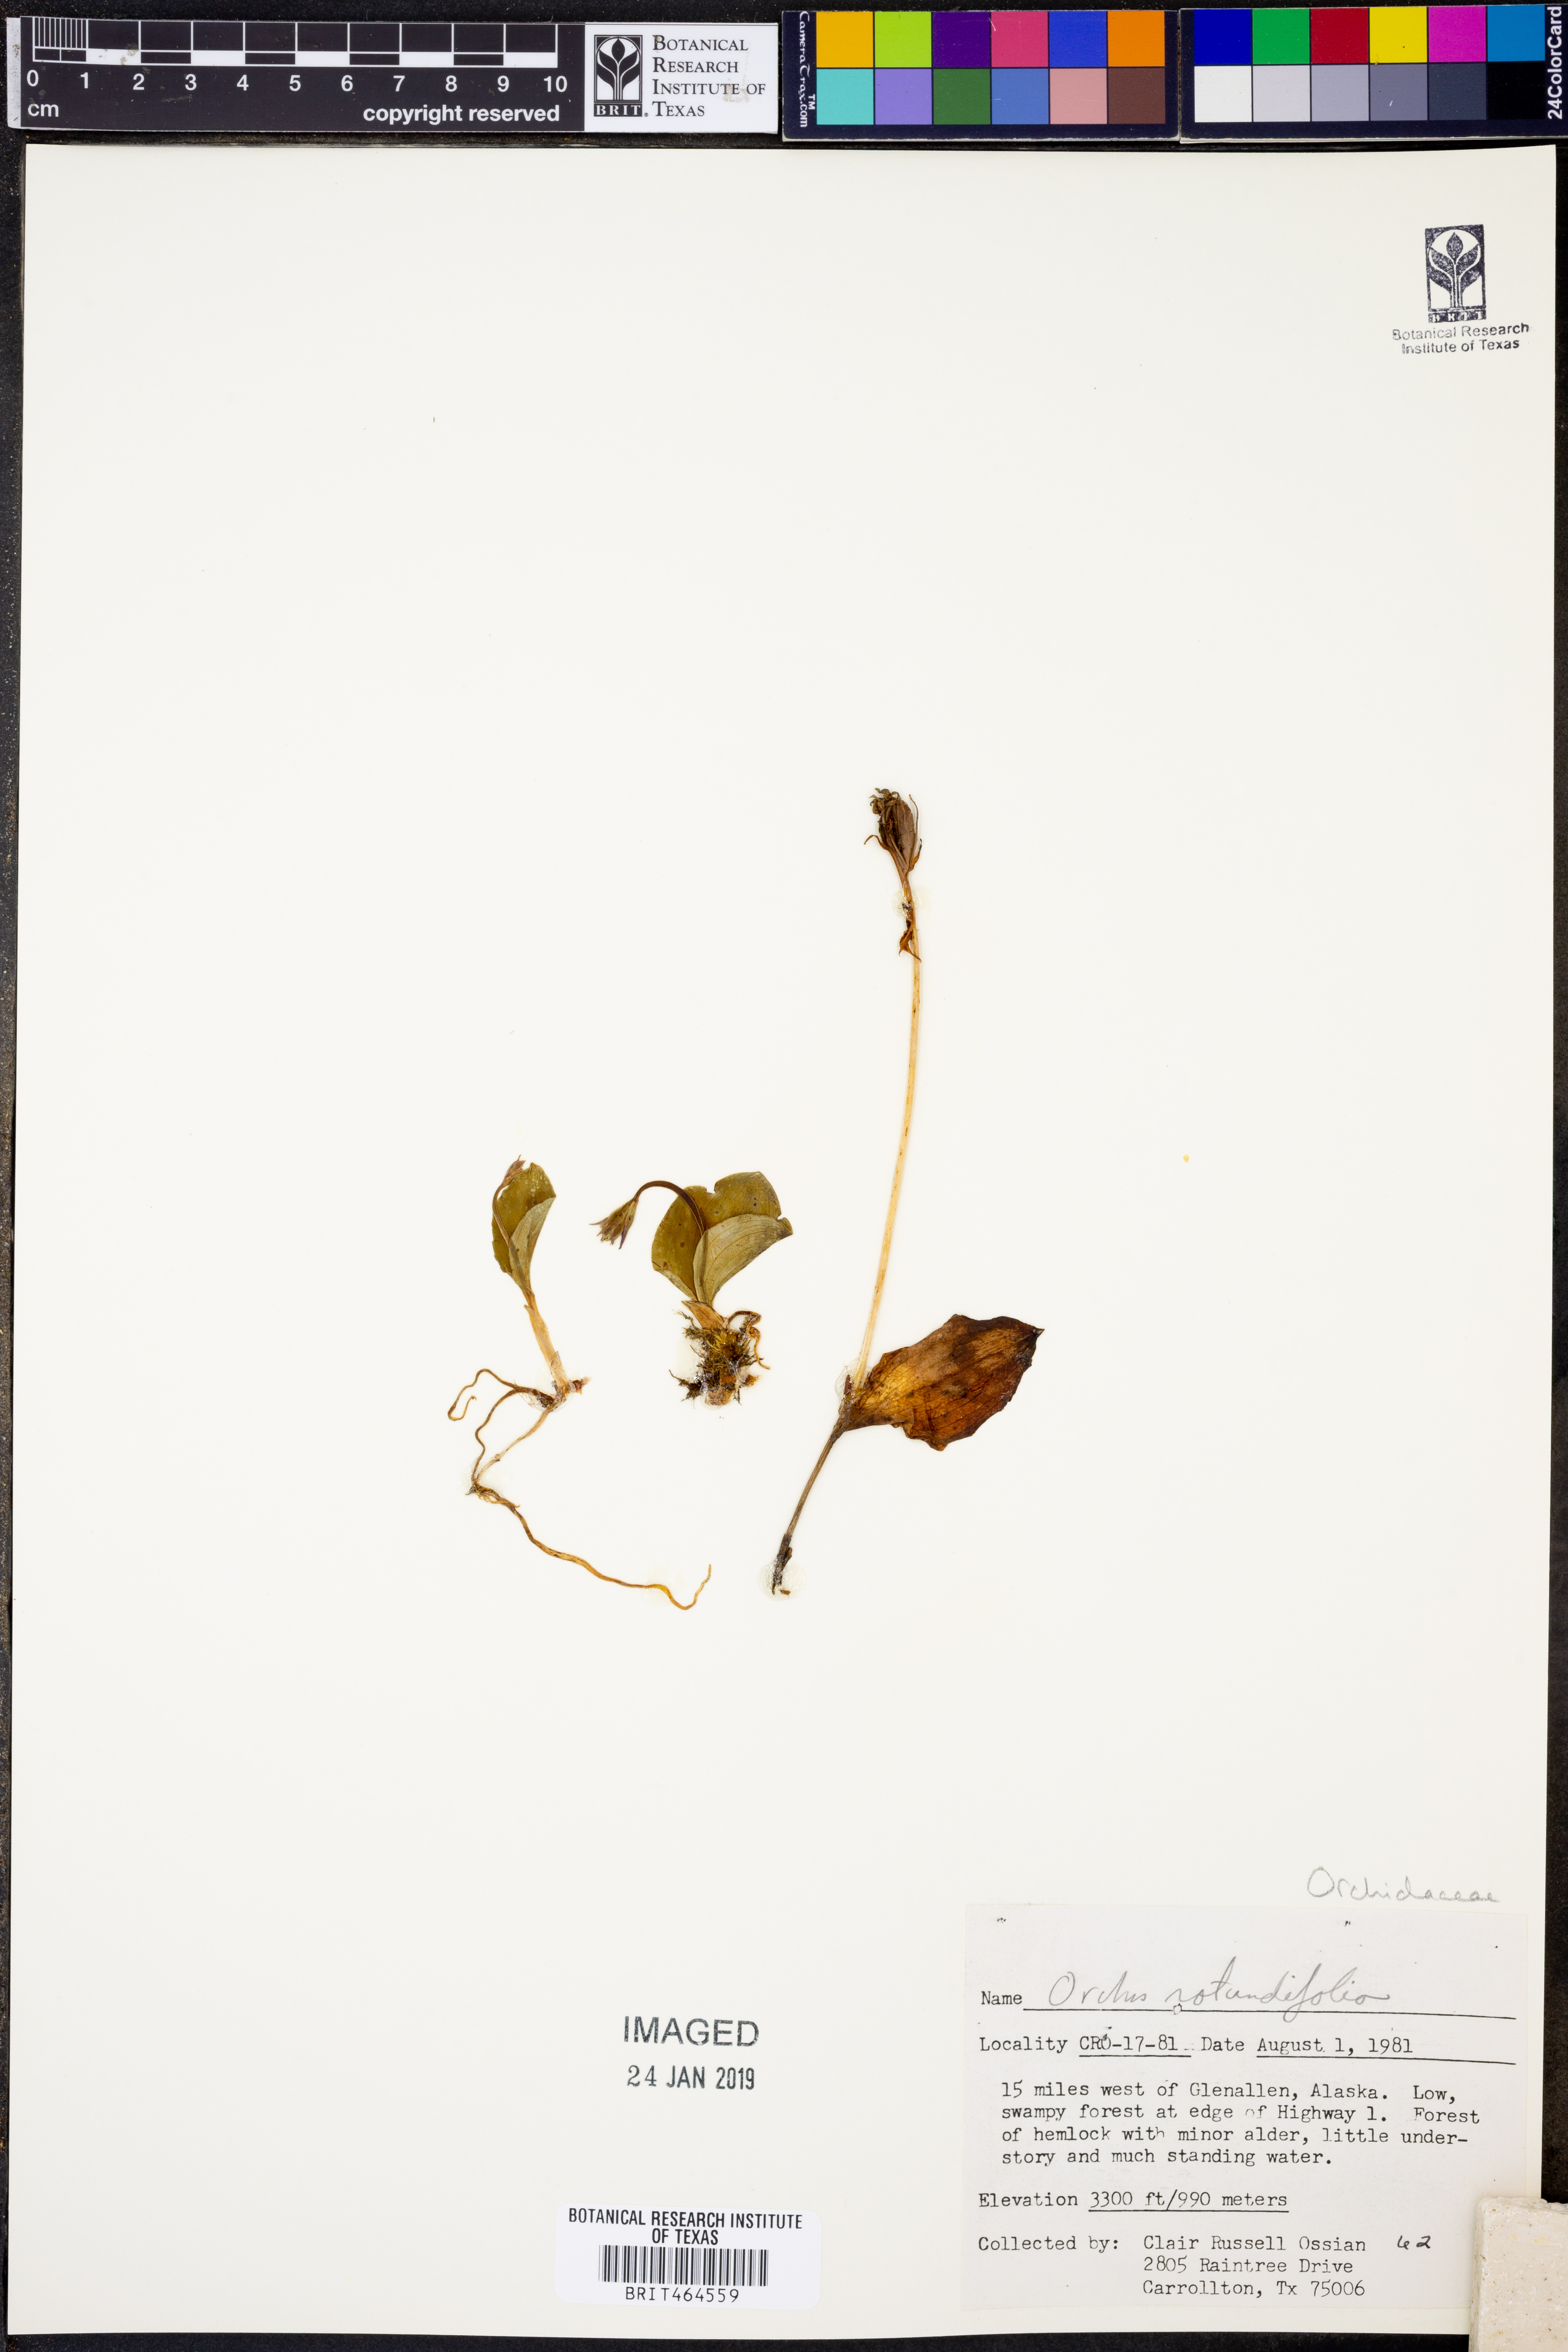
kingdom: Plantae
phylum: Tracheophyta
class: Liliopsida
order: Asparagales
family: Orchidaceae
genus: Galearis
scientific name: Galearis rotundifolia
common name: One-leaved orchis
